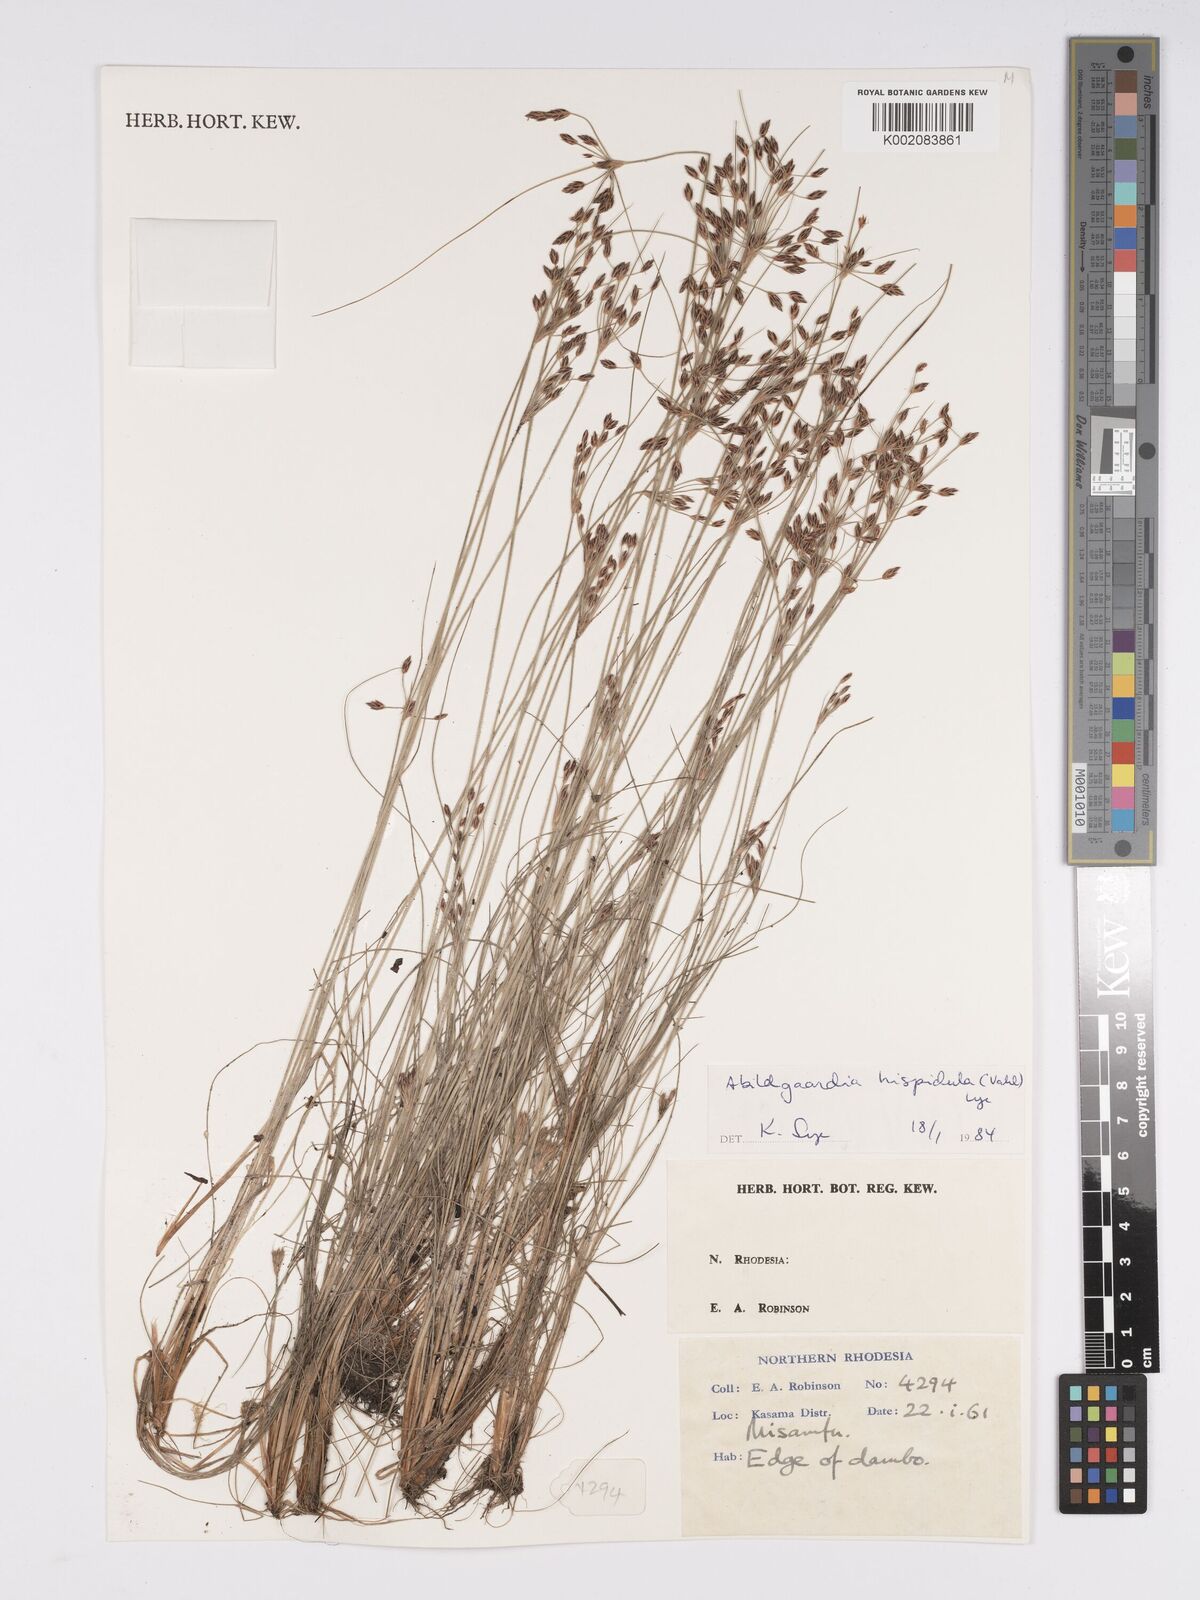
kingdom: Plantae
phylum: Tracheophyta
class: Liliopsida
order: Poales
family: Cyperaceae
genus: Bulbostylis
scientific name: Bulbostylis hispidula
